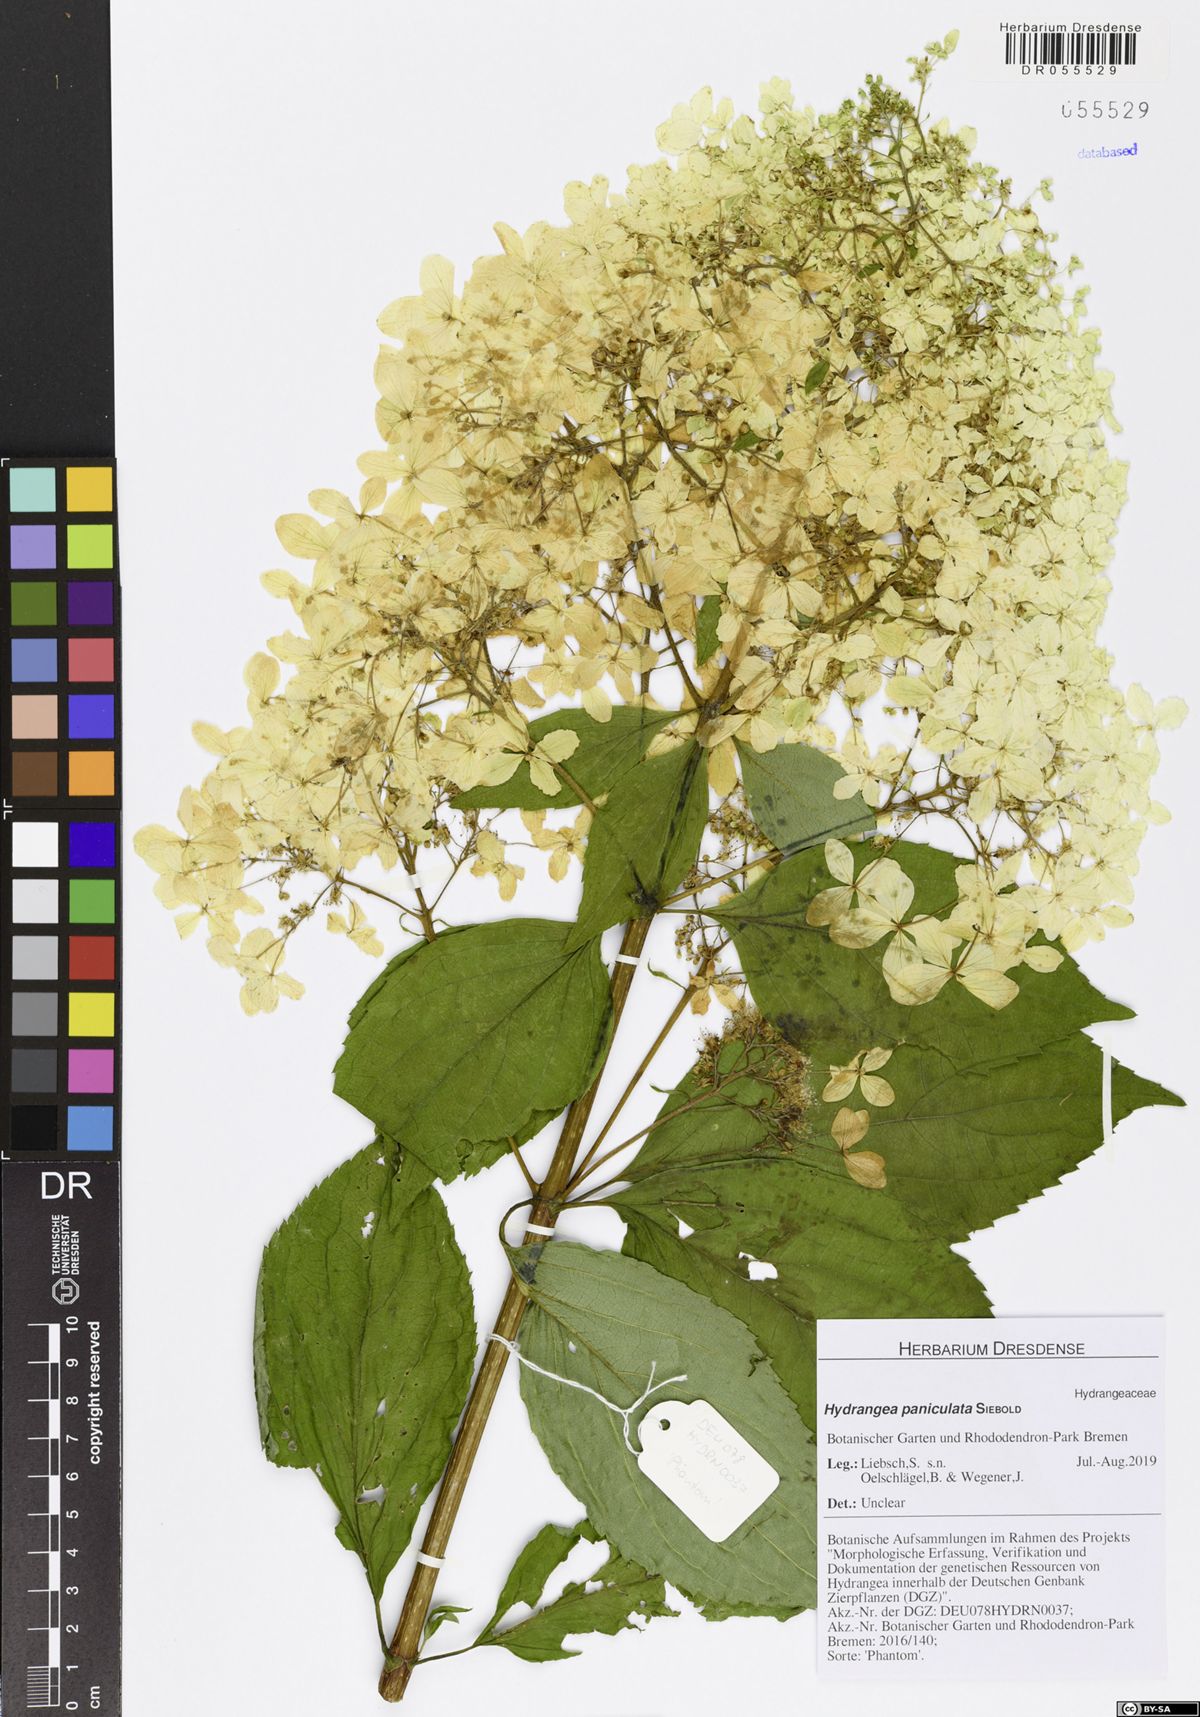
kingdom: Plantae
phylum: Tracheophyta
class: Magnoliopsida
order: Cornales
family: Hydrangeaceae
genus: Hydrangea
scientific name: Hydrangea paniculata
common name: Panicled hydrangea
